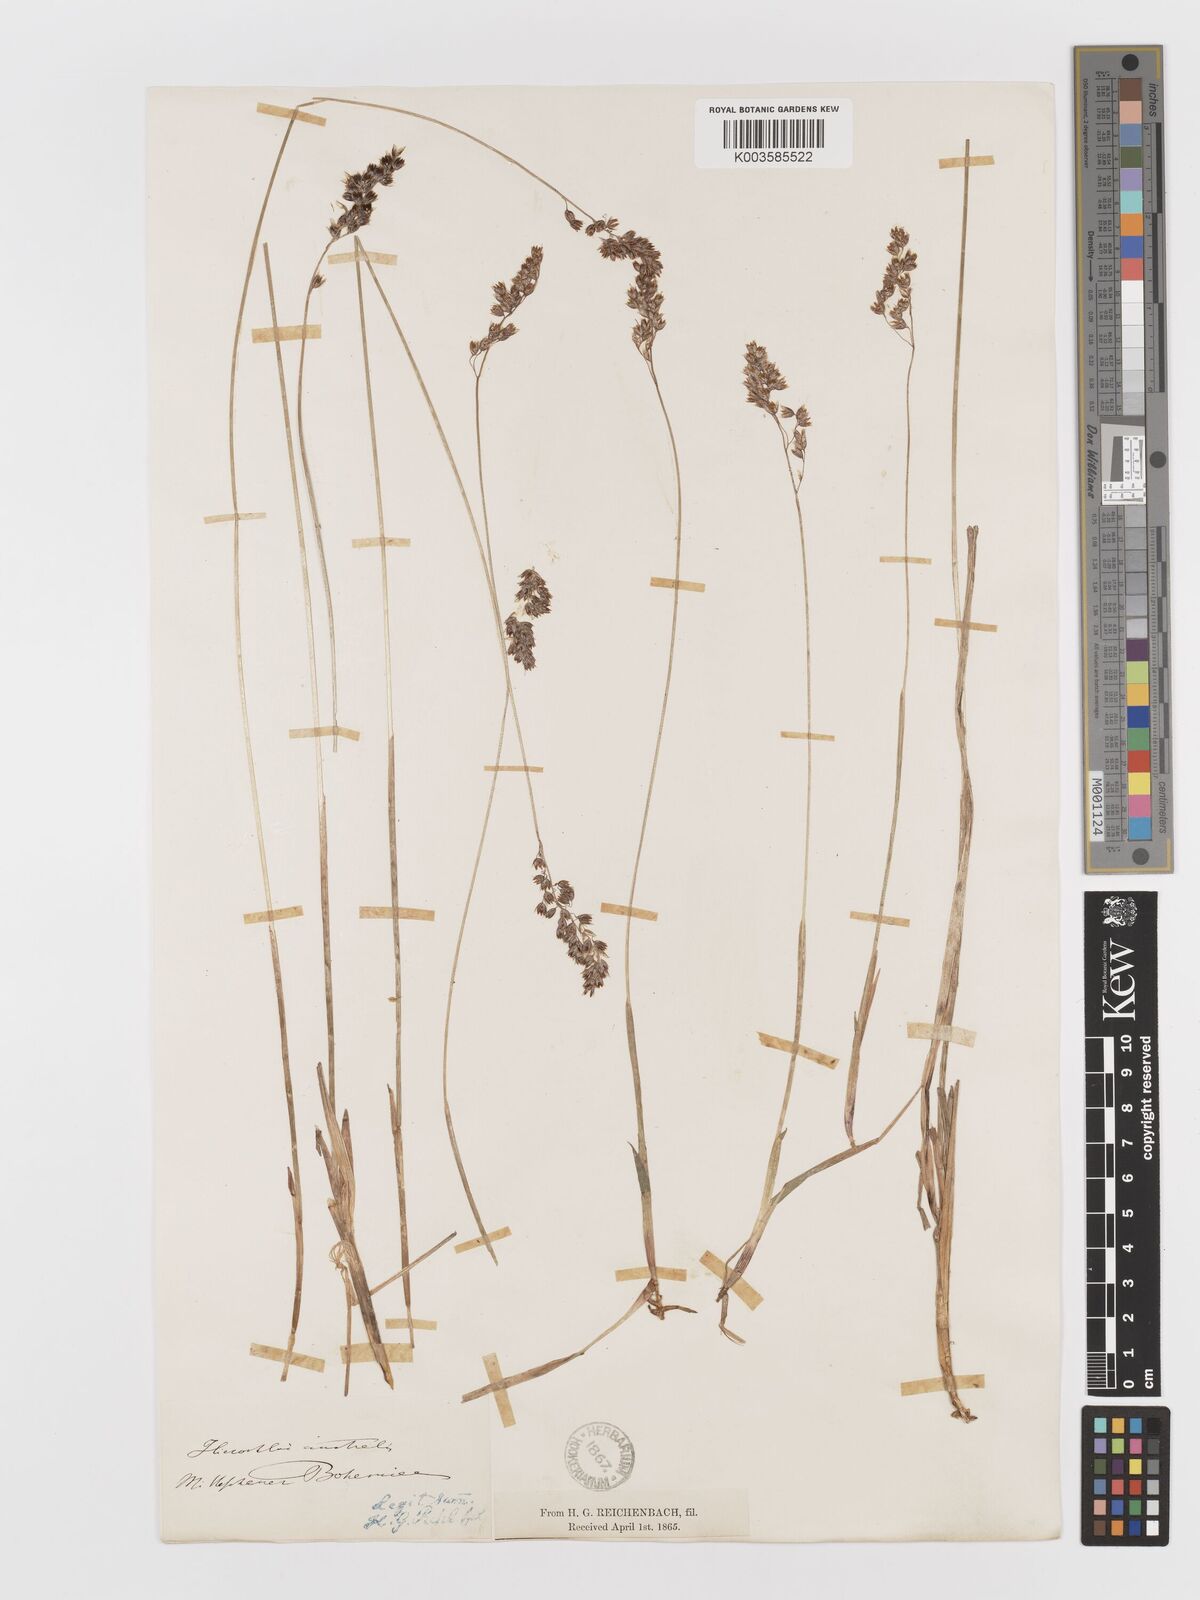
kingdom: Plantae
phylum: Tracheophyta
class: Liliopsida
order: Poales
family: Poaceae
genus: Anthoxanthum
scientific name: Anthoxanthum australe
